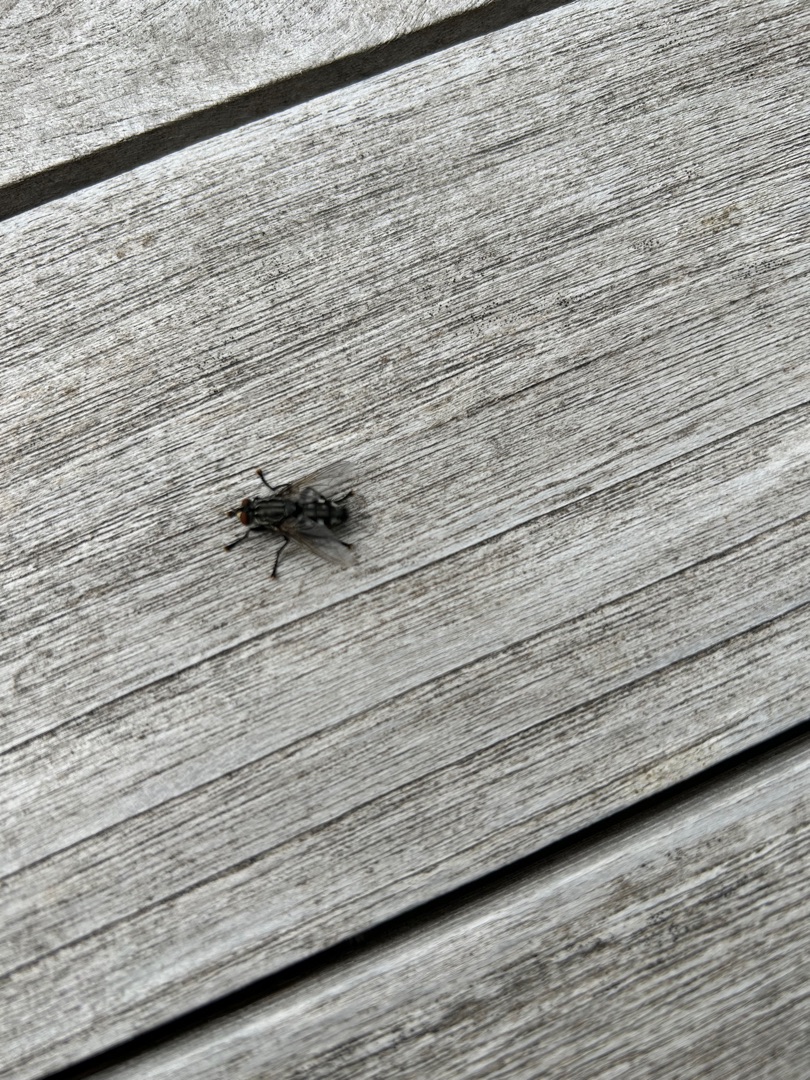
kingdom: Animalia
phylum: Arthropoda
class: Insecta
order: Diptera
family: Sarcophagidae
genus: Sarcophaga
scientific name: Sarcophaga
